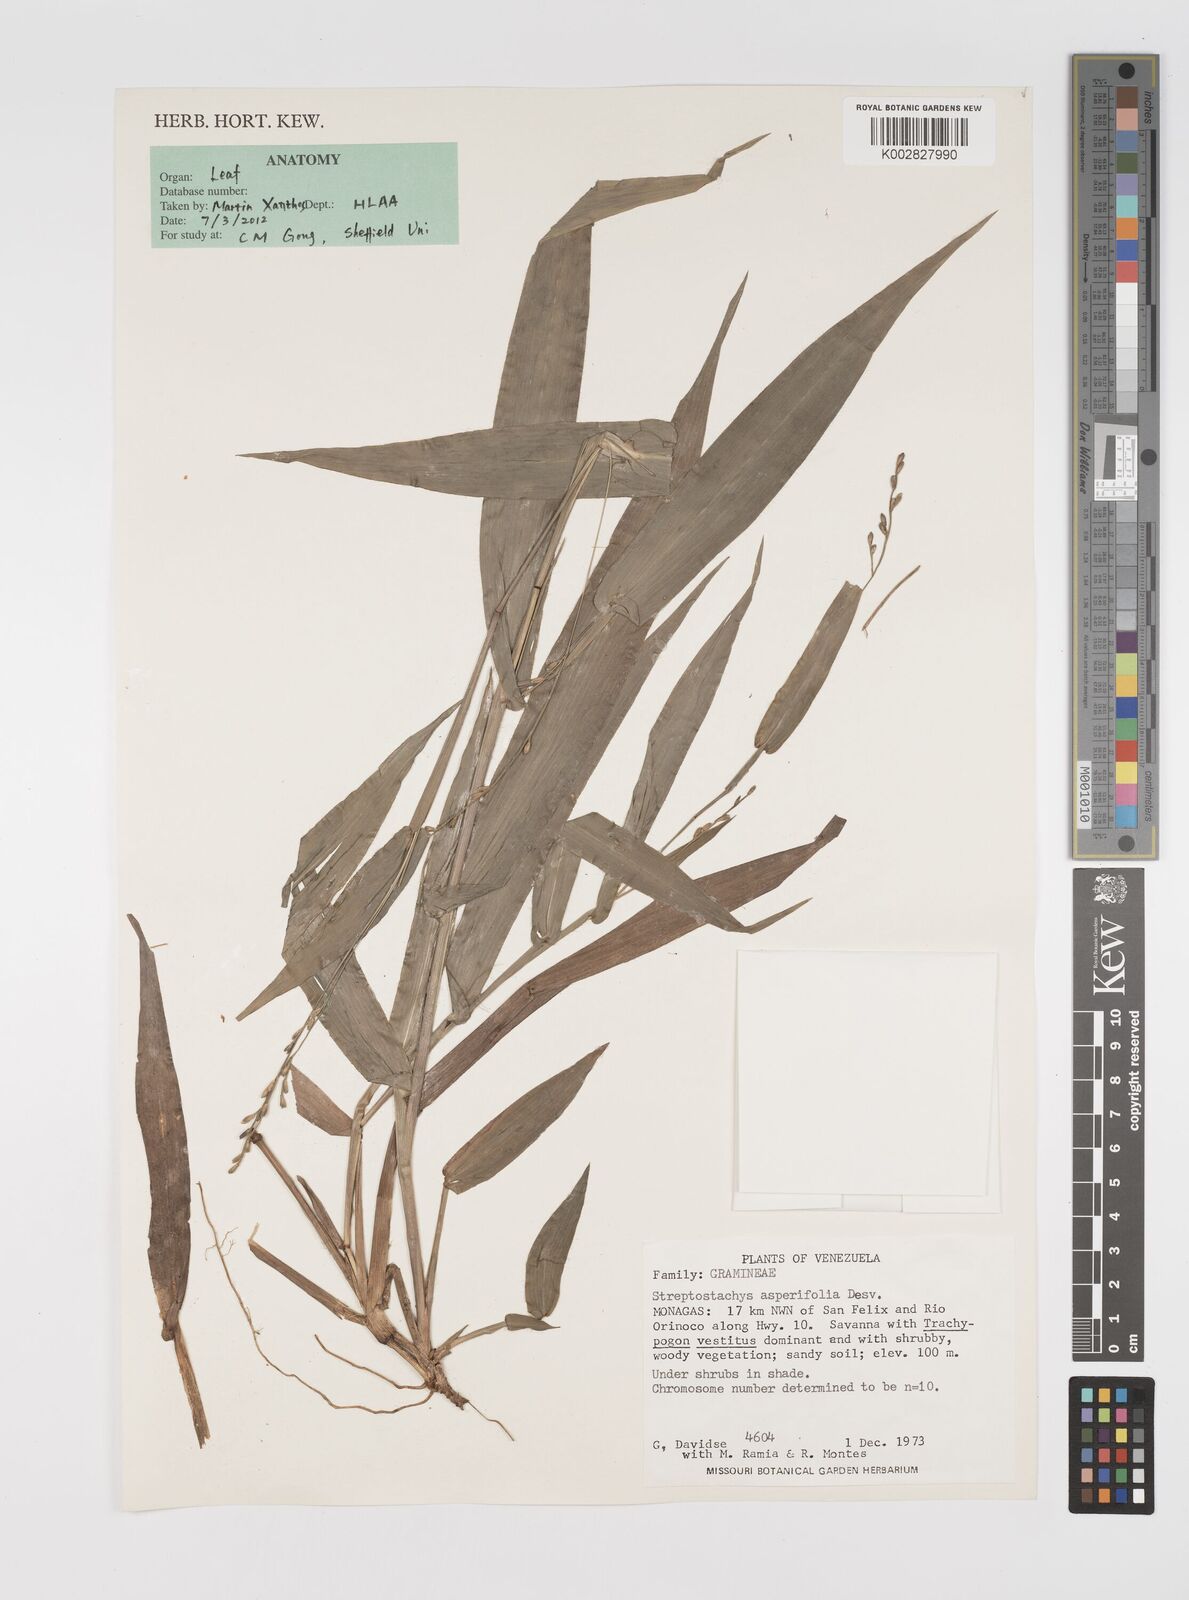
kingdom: Plantae
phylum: Tracheophyta
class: Liliopsida
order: Poales
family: Poaceae
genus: Streptostachys
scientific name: Streptostachys asperifolia
